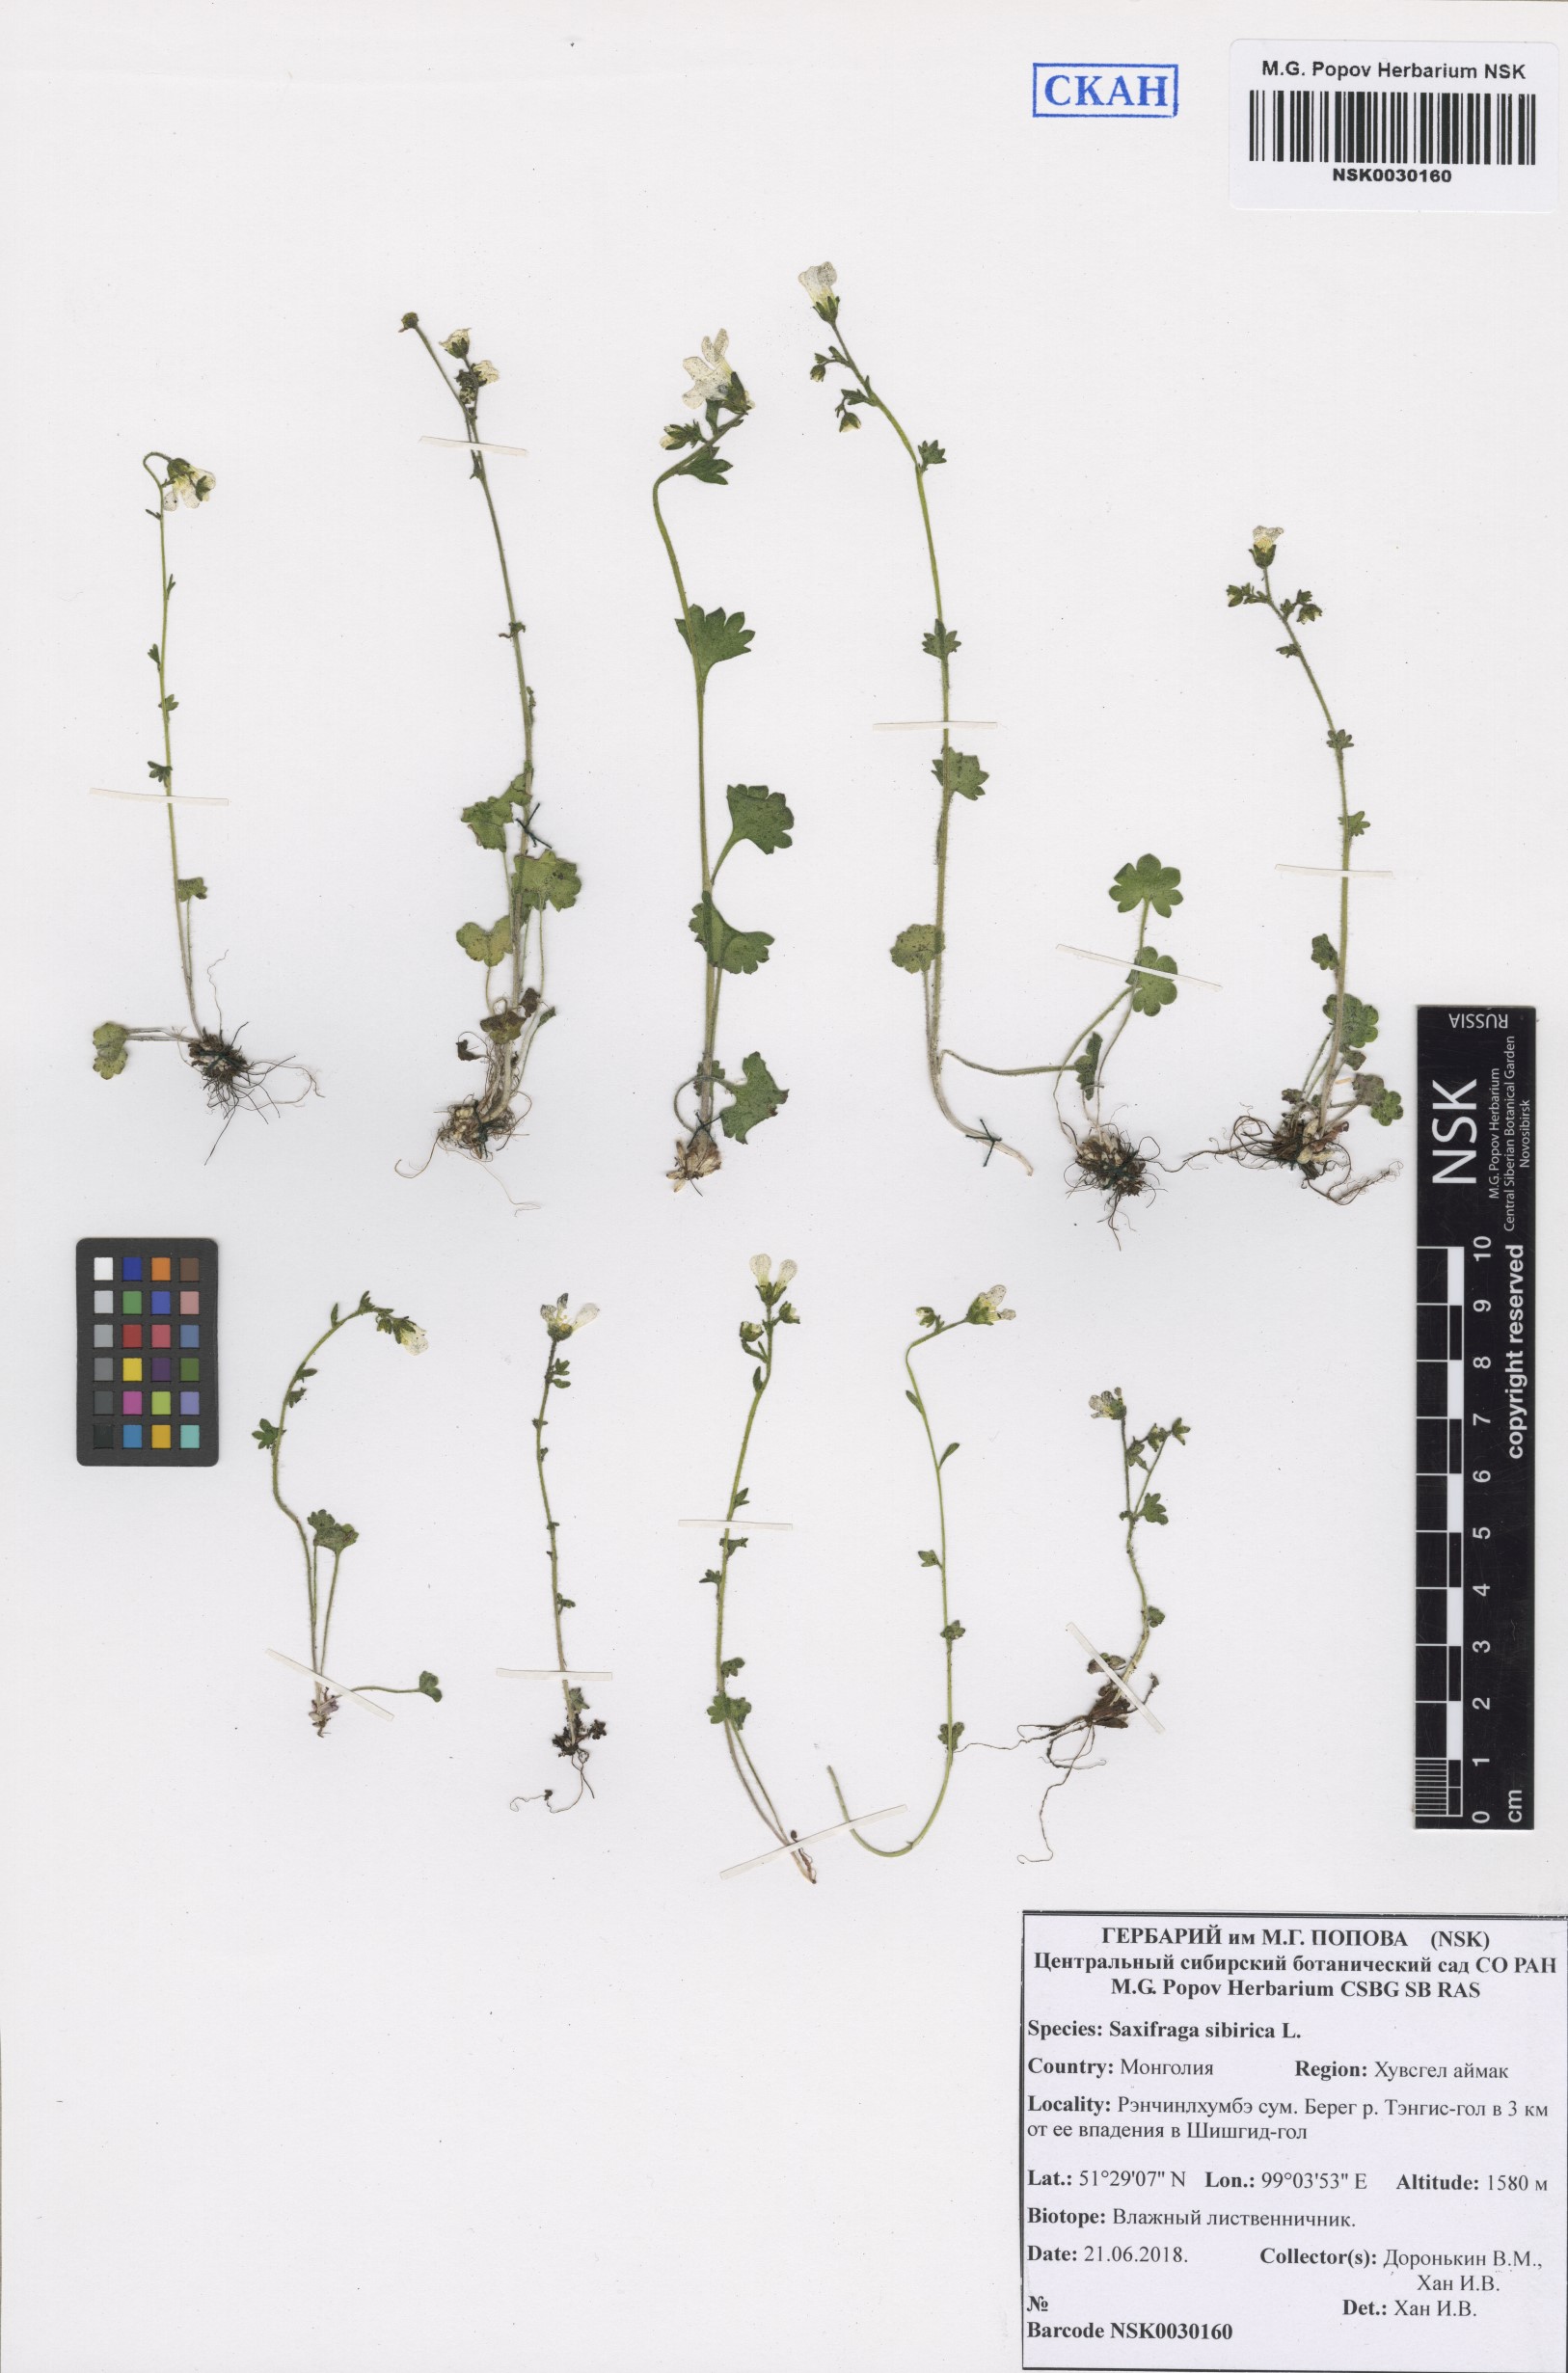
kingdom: Plantae
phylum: Tracheophyta
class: Magnoliopsida
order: Saxifragales
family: Saxifragaceae
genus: Saxifraga
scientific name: Saxifraga sibirica
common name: Siberian saxifrage
